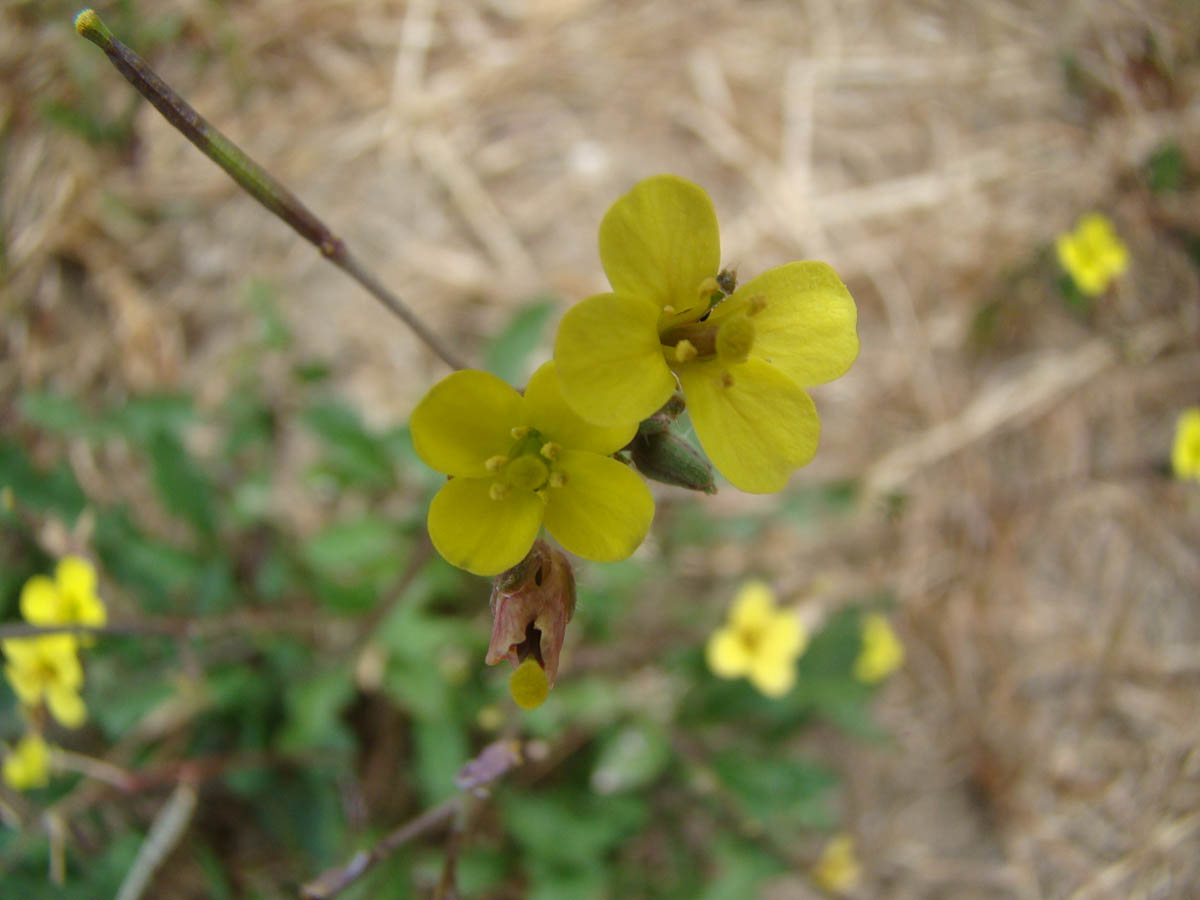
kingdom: Plantae
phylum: Tracheophyta
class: Magnoliopsida
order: Brassicales
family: Brassicaceae
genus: Diplotaxis
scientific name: Diplotaxis muralis
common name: Annual wall-rocket
